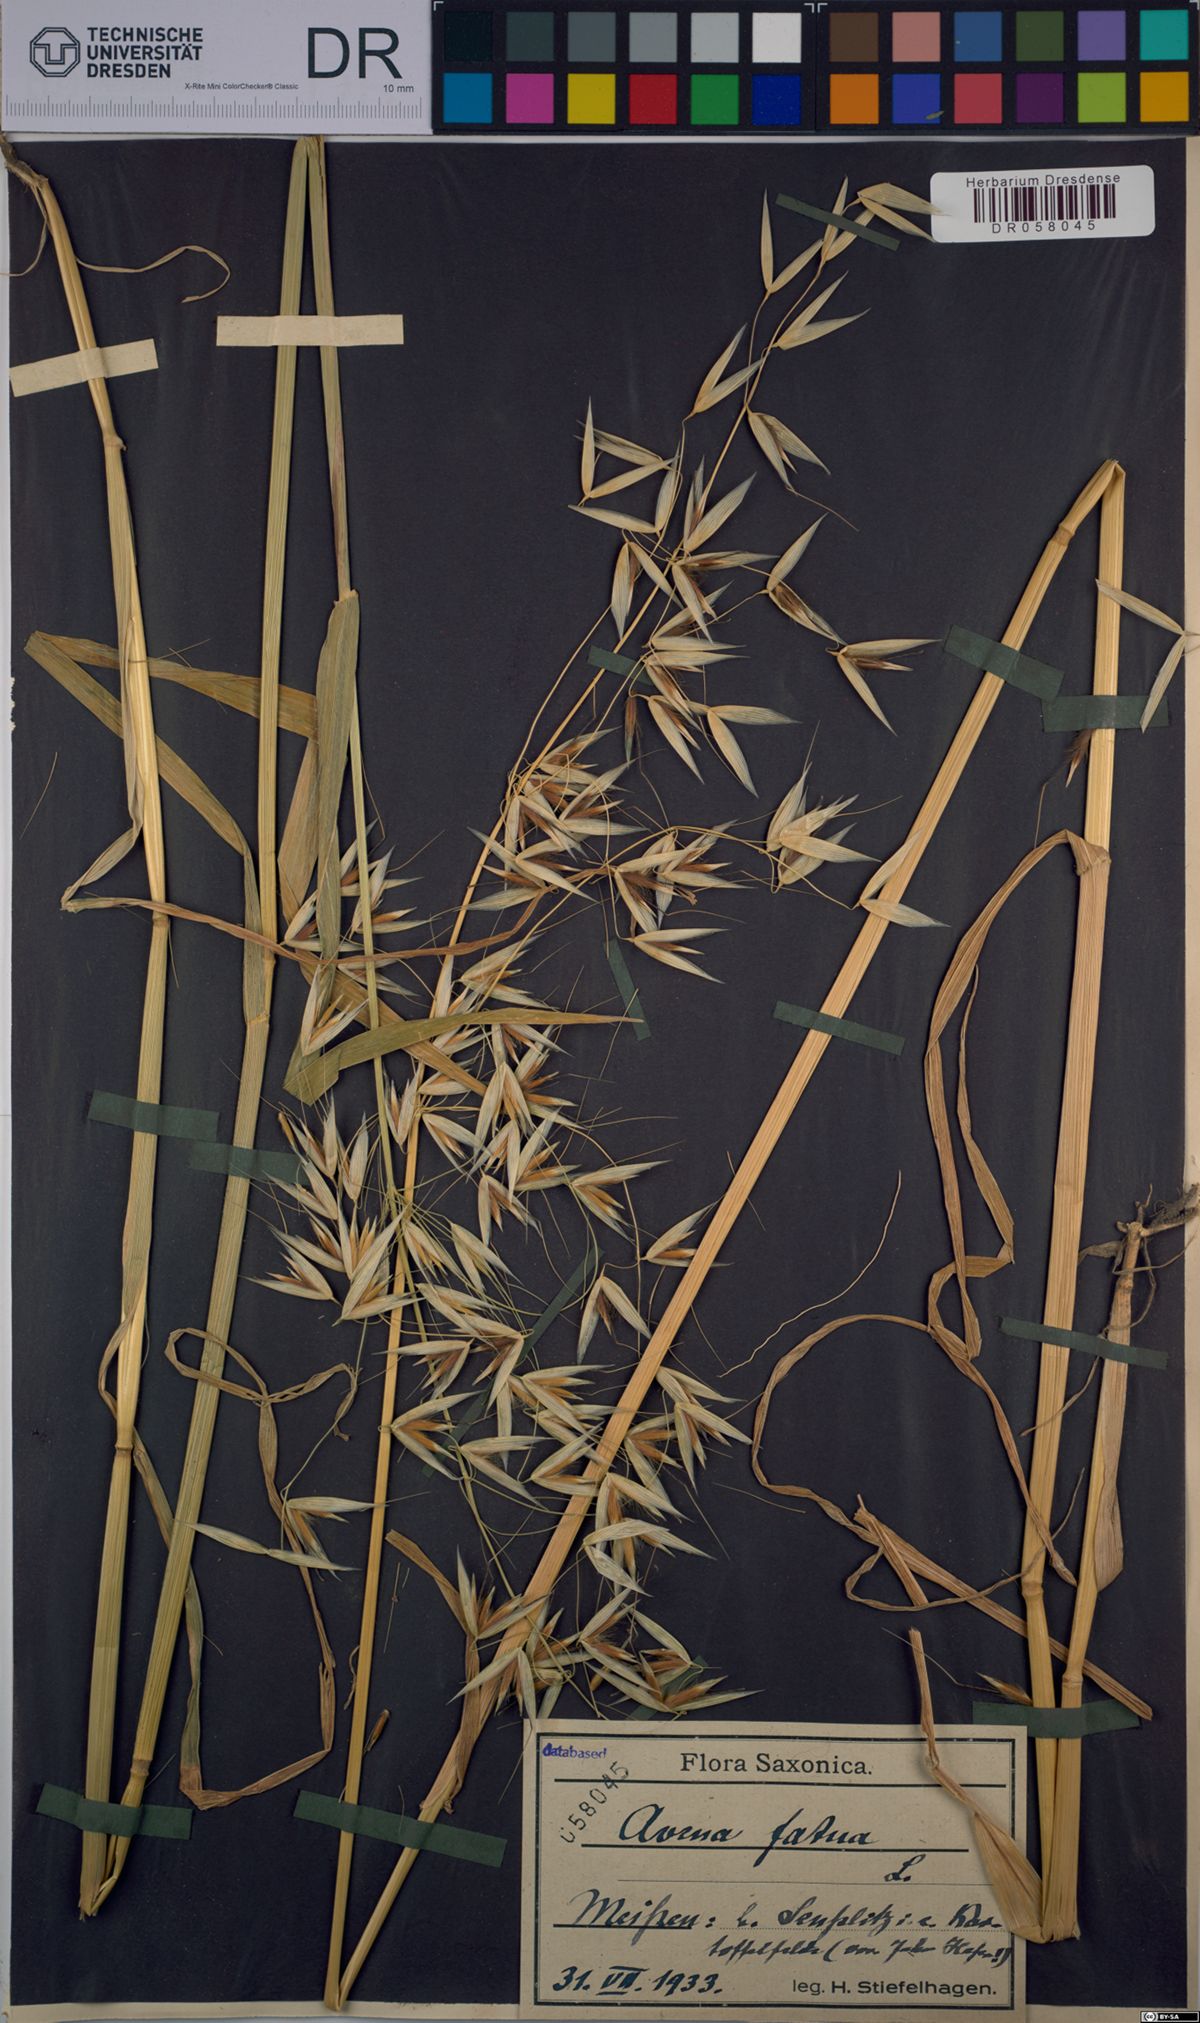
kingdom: Plantae
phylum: Tracheophyta
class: Liliopsida
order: Poales
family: Poaceae
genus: Avena
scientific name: Avena fatua
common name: Wild oat
